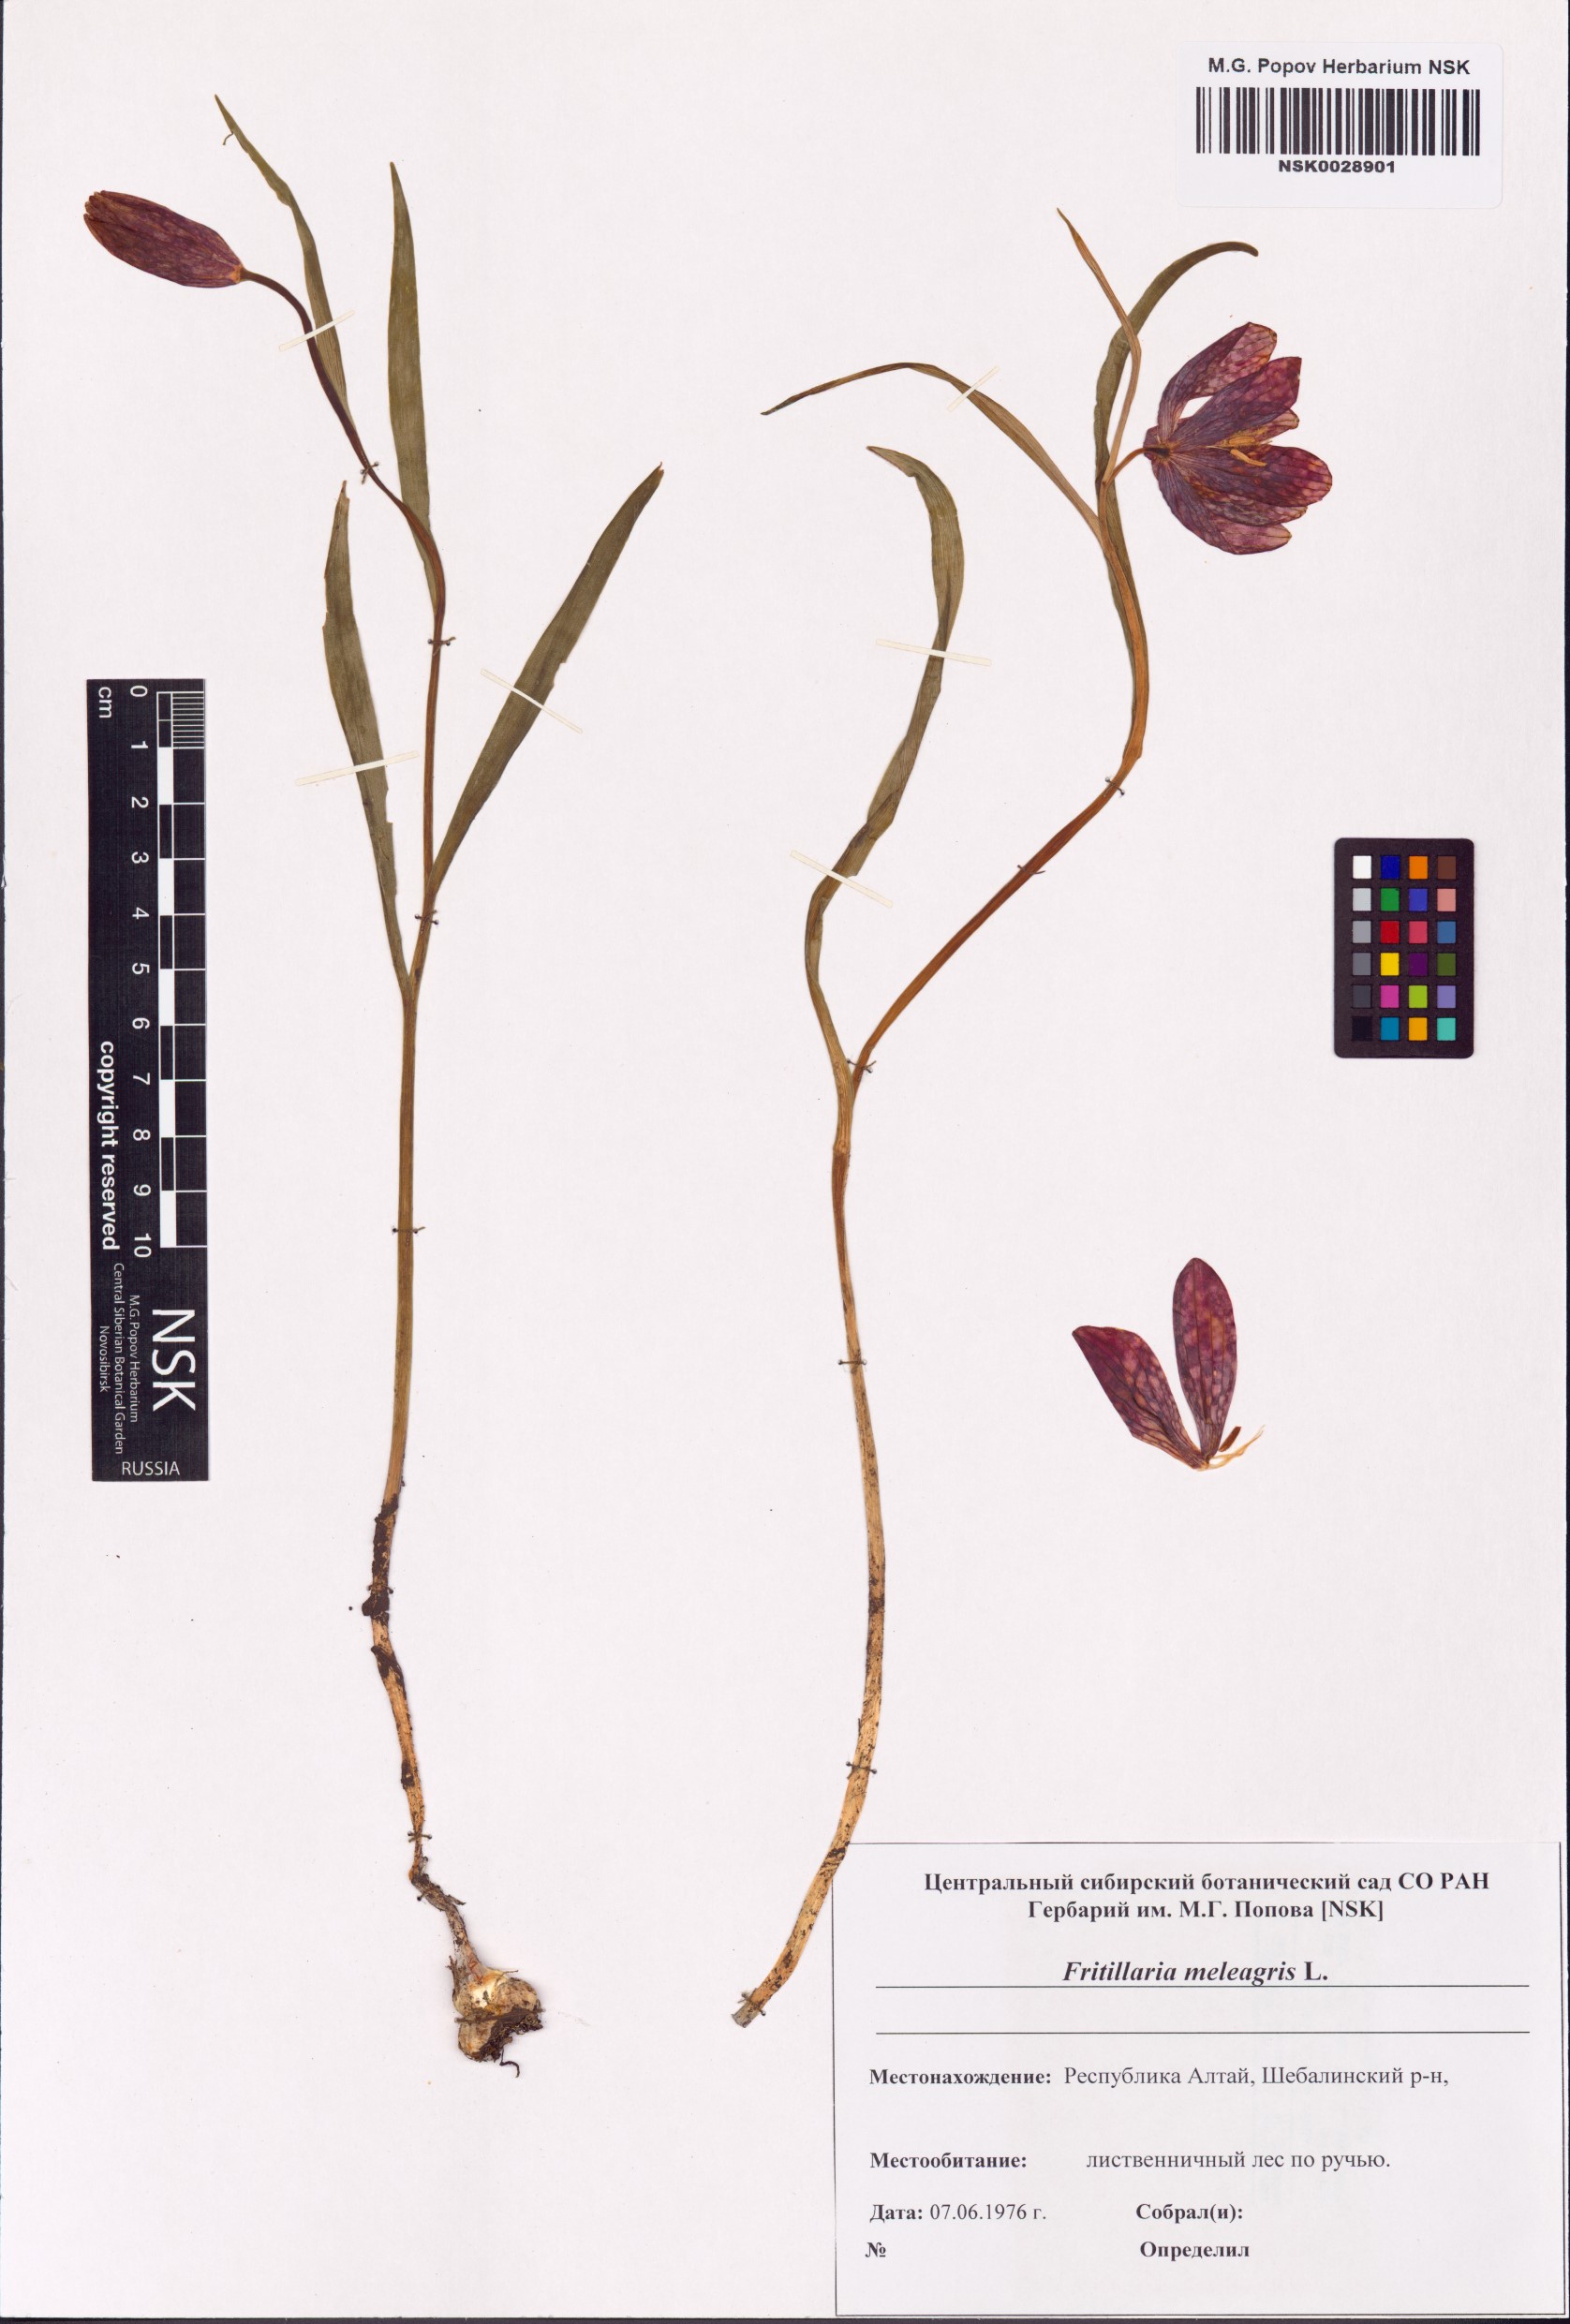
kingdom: Plantae
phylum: Tracheophyta
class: Liliopsida
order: Liliales
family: Liliaceae
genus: Fritillaria
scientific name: Fritillaria meleagris
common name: Fritillary
